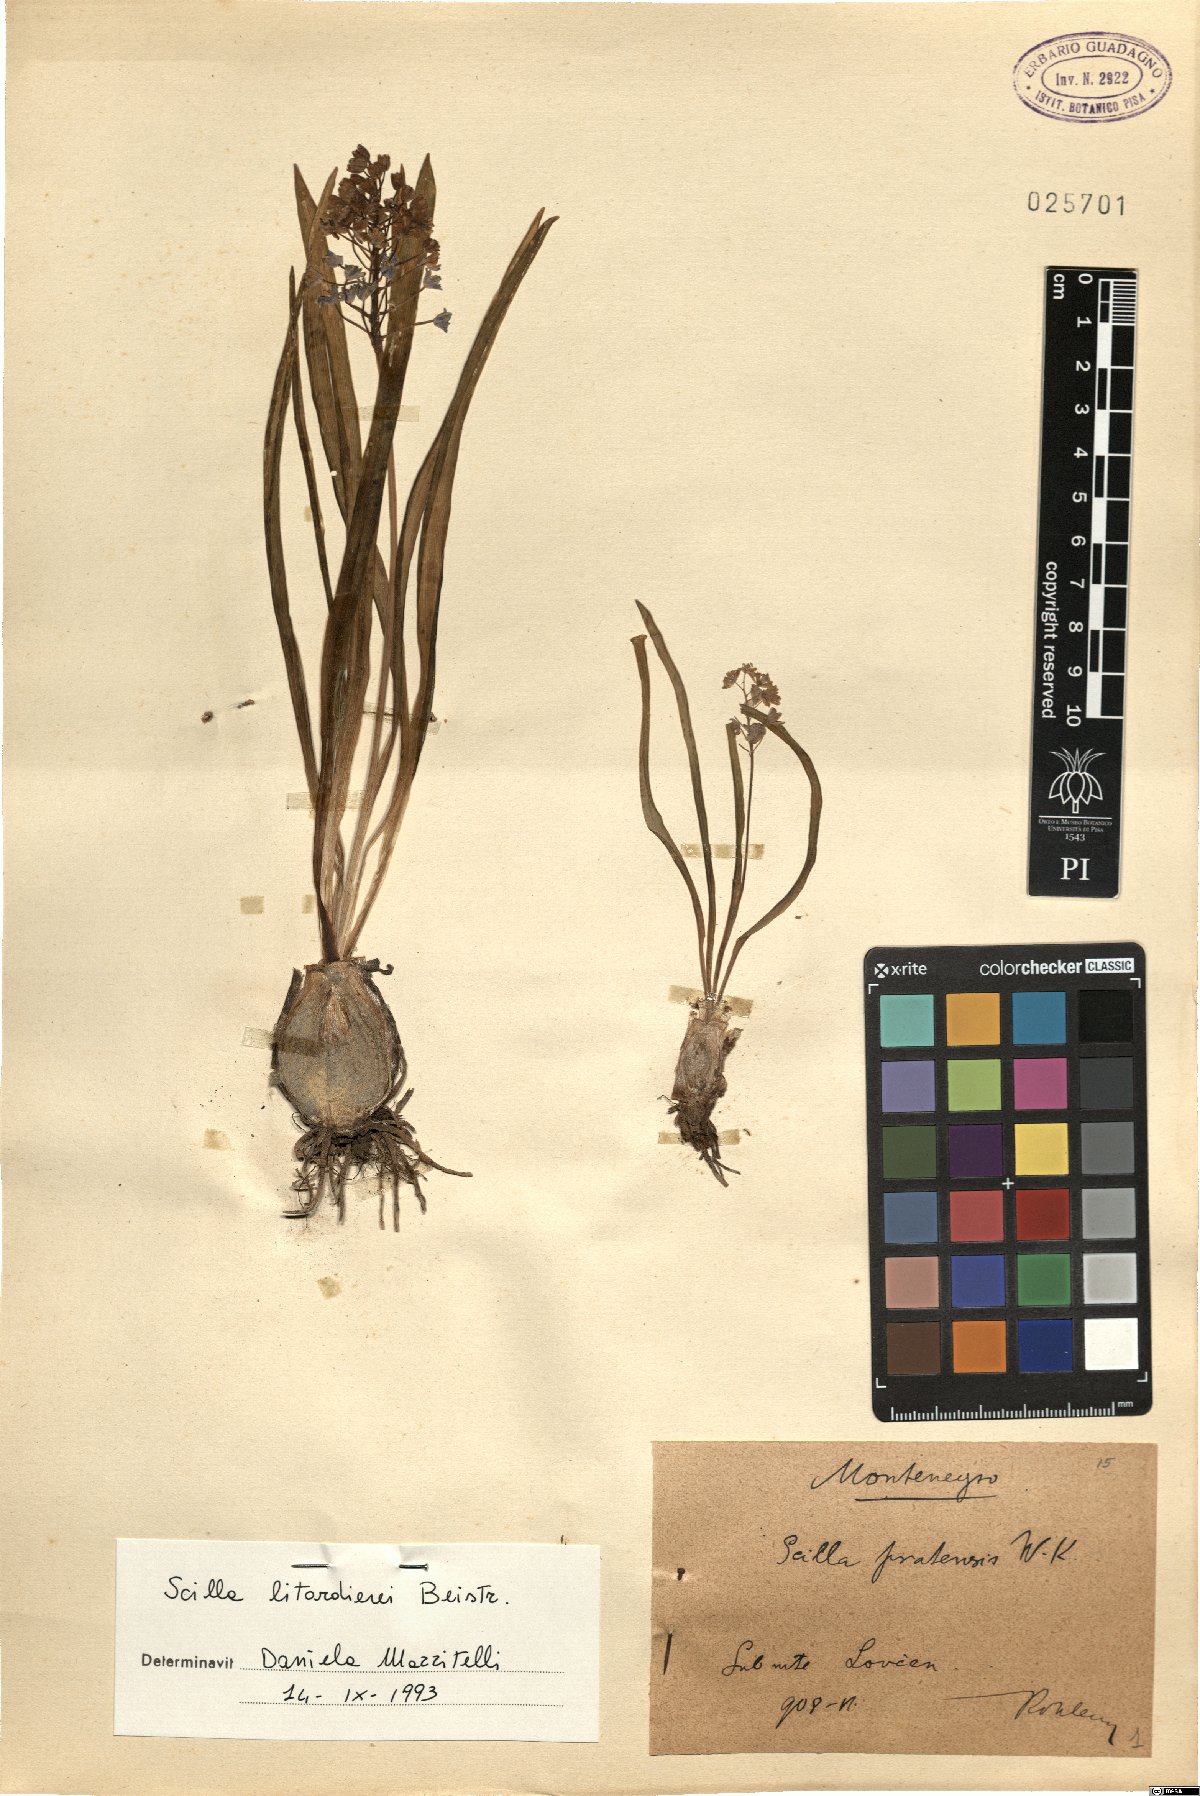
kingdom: Plantae
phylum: Tracheophyta
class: Liliopsida
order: Asparagales
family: Asparagaceae
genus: Scilla
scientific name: Scilla litardierei
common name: Amethyst meadow squill
